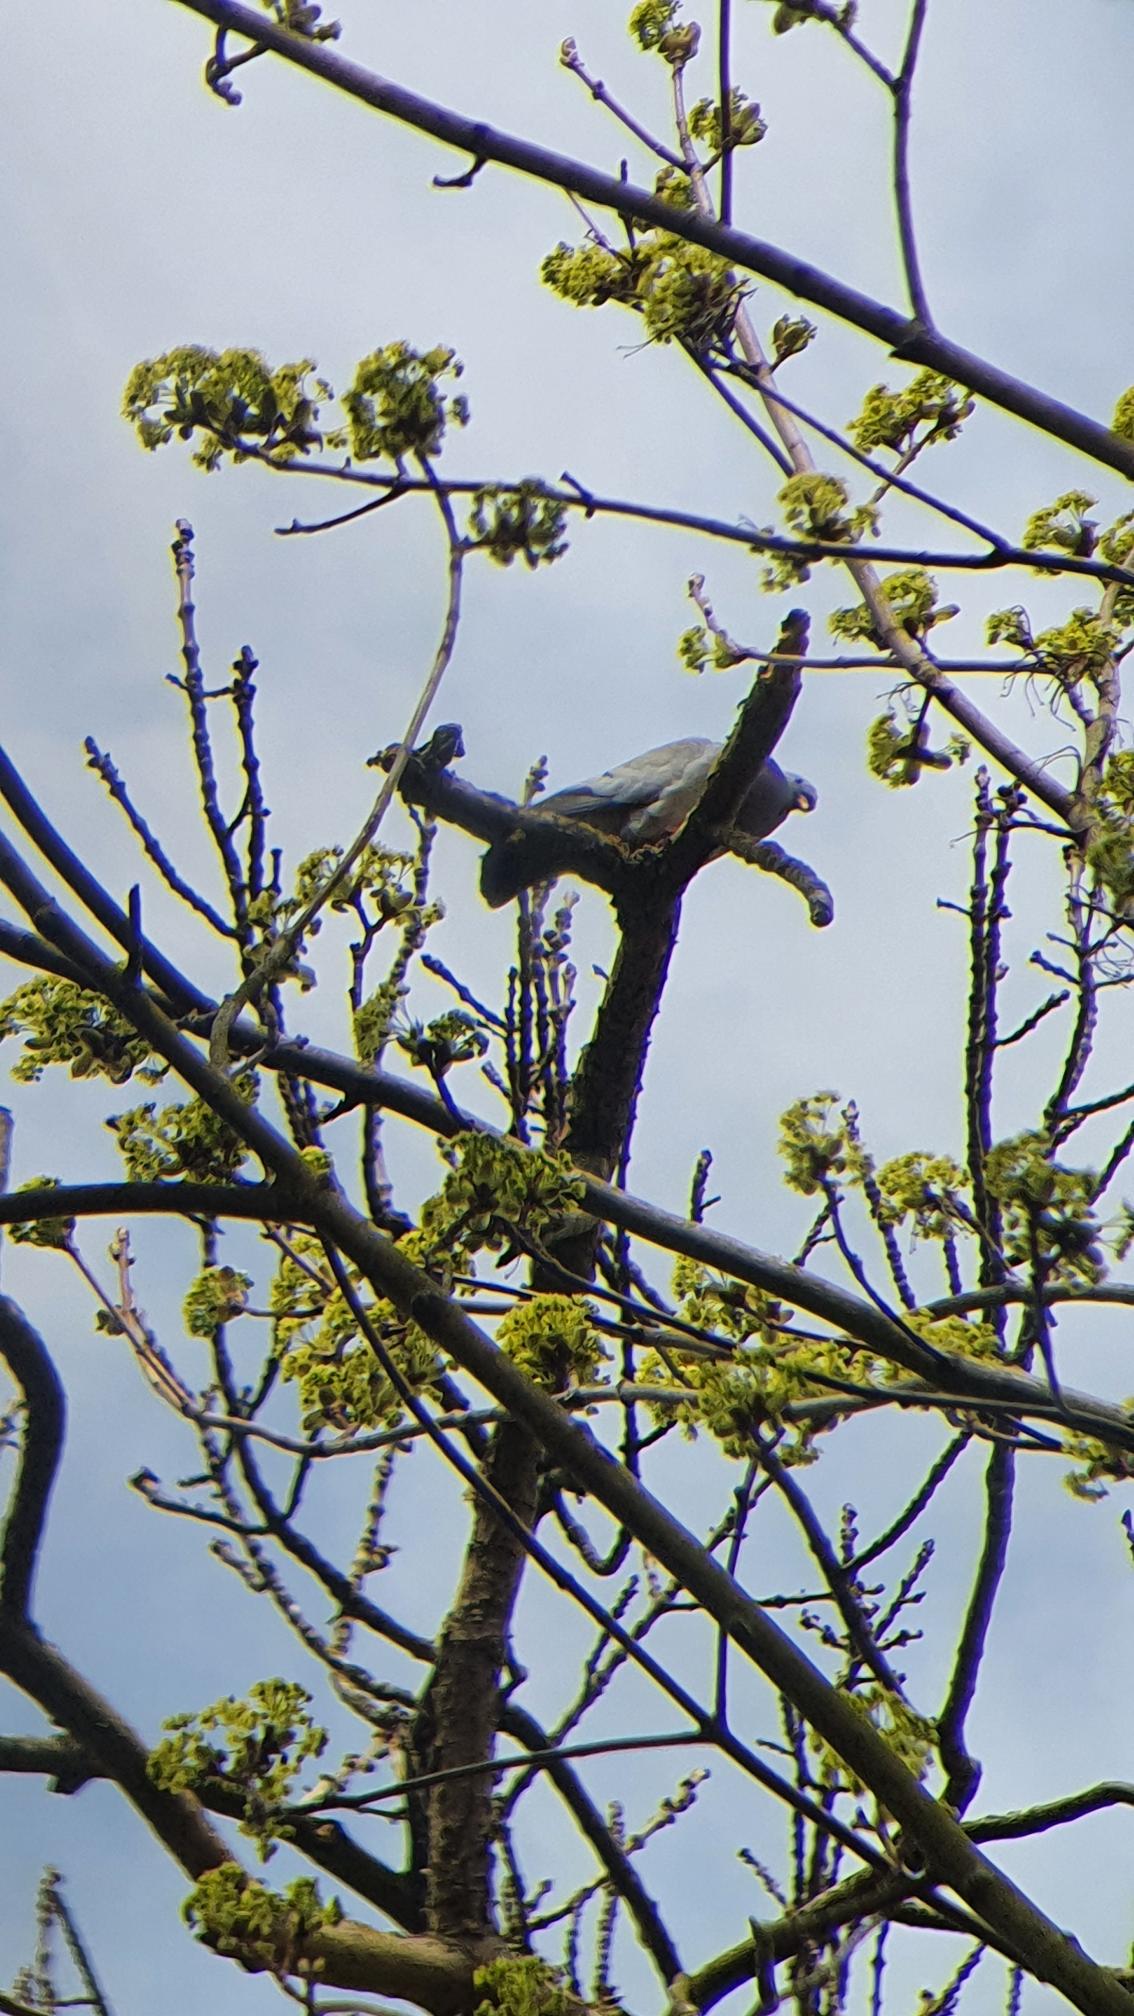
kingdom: Animalia
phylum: Chordata
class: Aves
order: Columbiformes
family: Columbidae
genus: Columba
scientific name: Columba oenas
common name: Huldue
